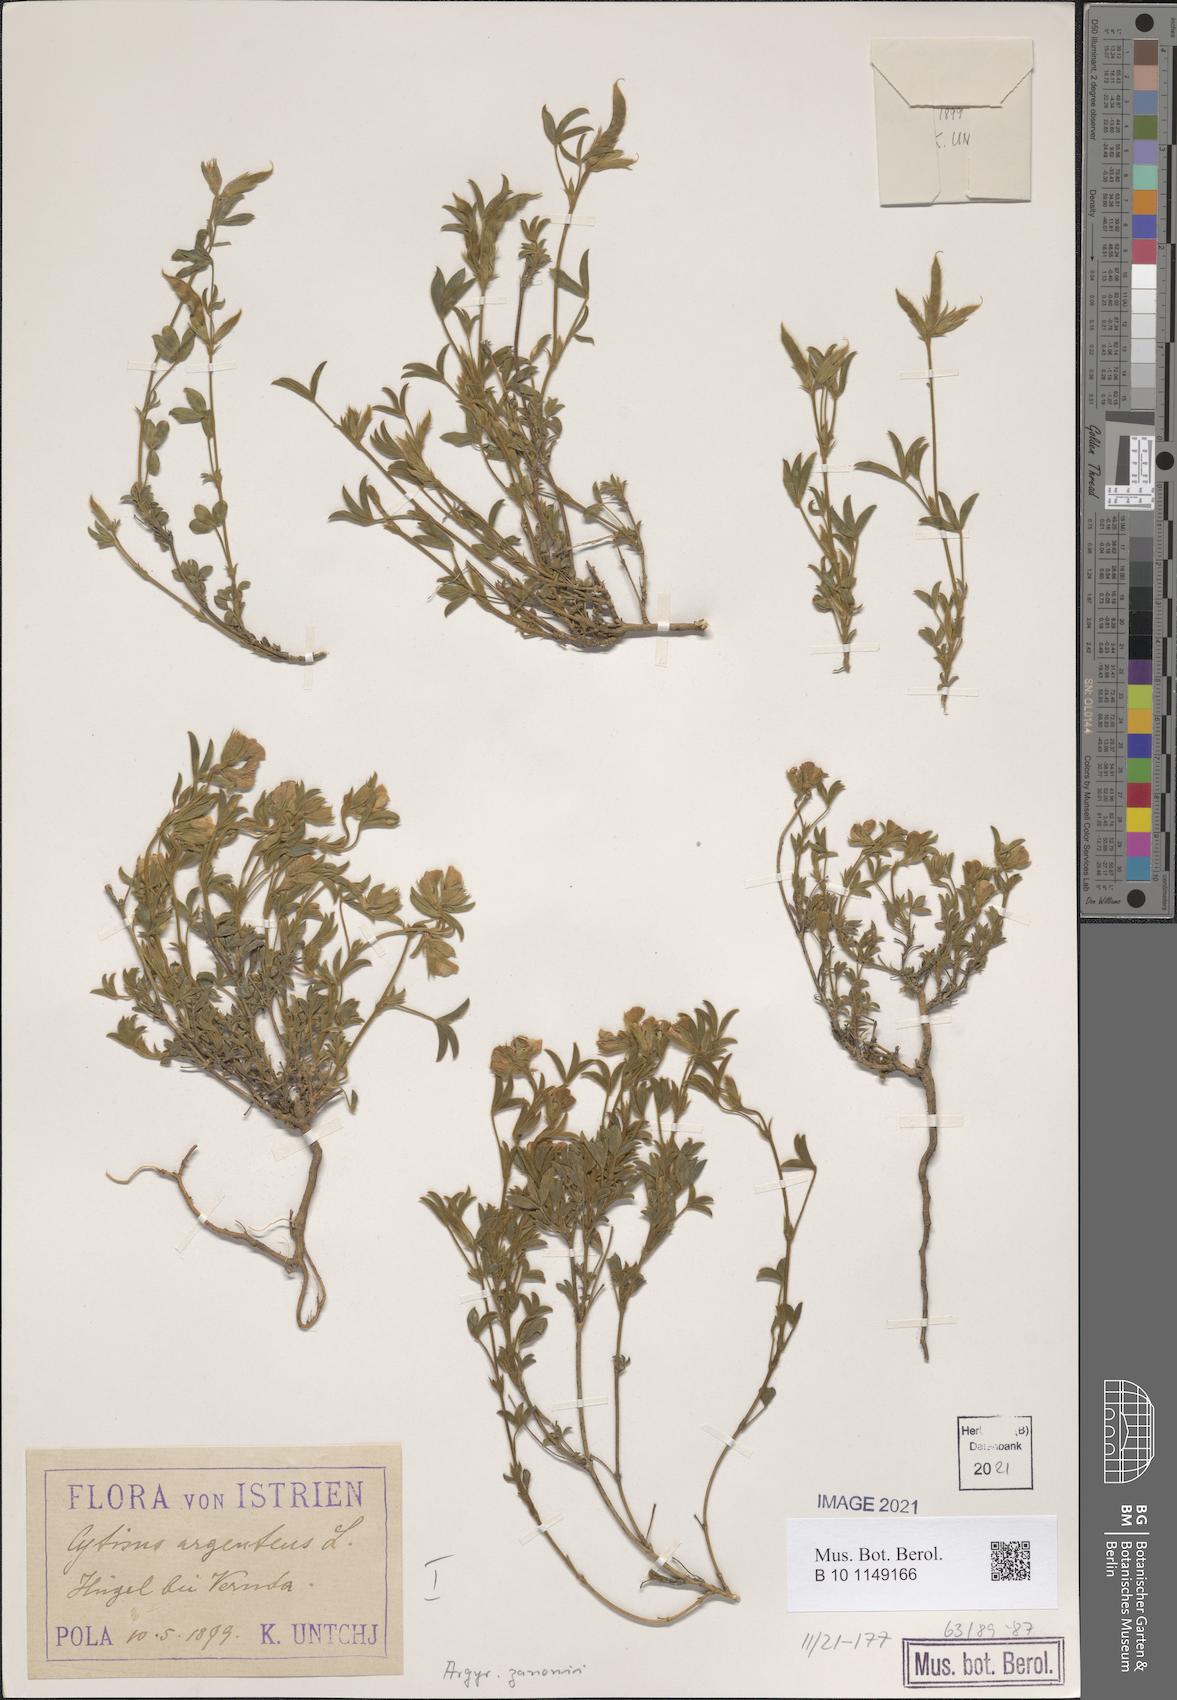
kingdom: Plantae
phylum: Tracheophyta
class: Magnoliopsida
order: Fabales
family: Fabaceae
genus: Argyrolobium
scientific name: Argyrolobium zanonii
